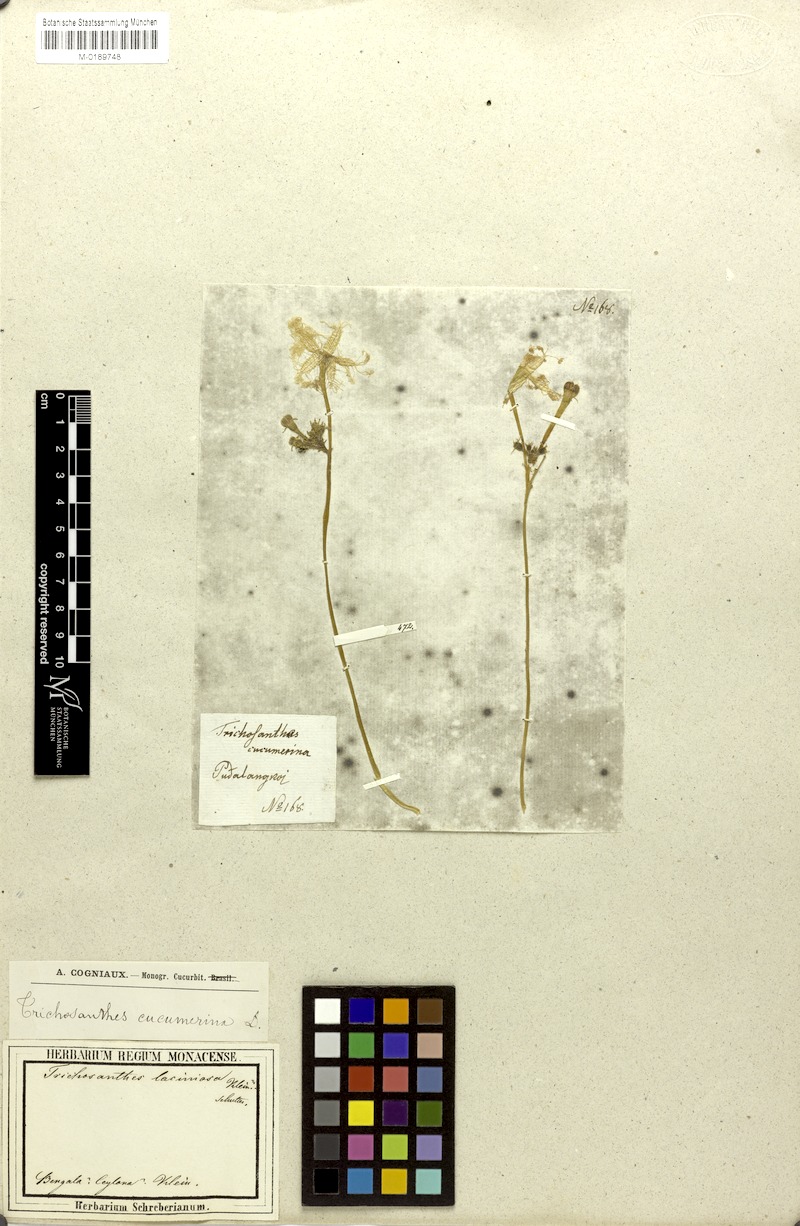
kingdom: Plantae
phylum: Tracheophyta
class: Magnoliopsida
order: Cucurbitales
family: Cucurbitaceae
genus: Trichosanthes
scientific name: Trichosanthes cucumerina
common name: Snakegourd
